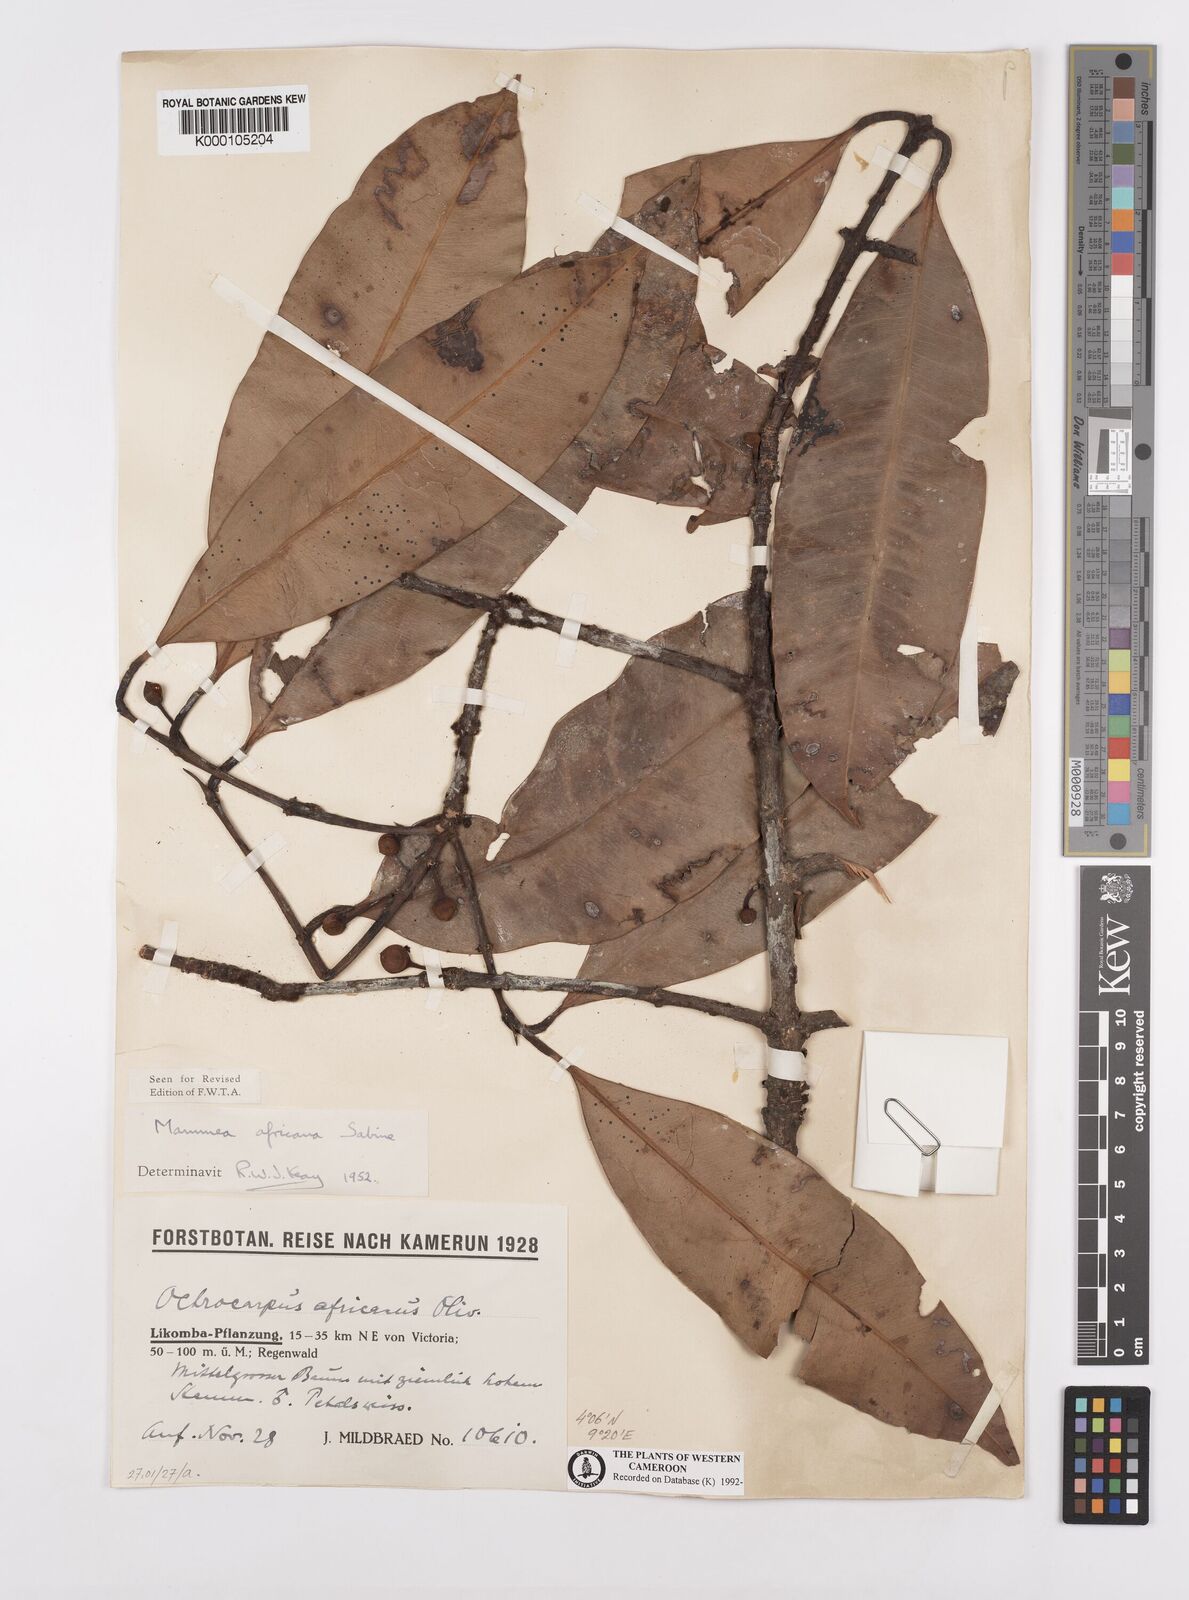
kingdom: Plantae
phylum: Tracheophyta
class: Magnoliopsida
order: Malpighiales
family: Calophyllaceae
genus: Mammea
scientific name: Mammea africana
